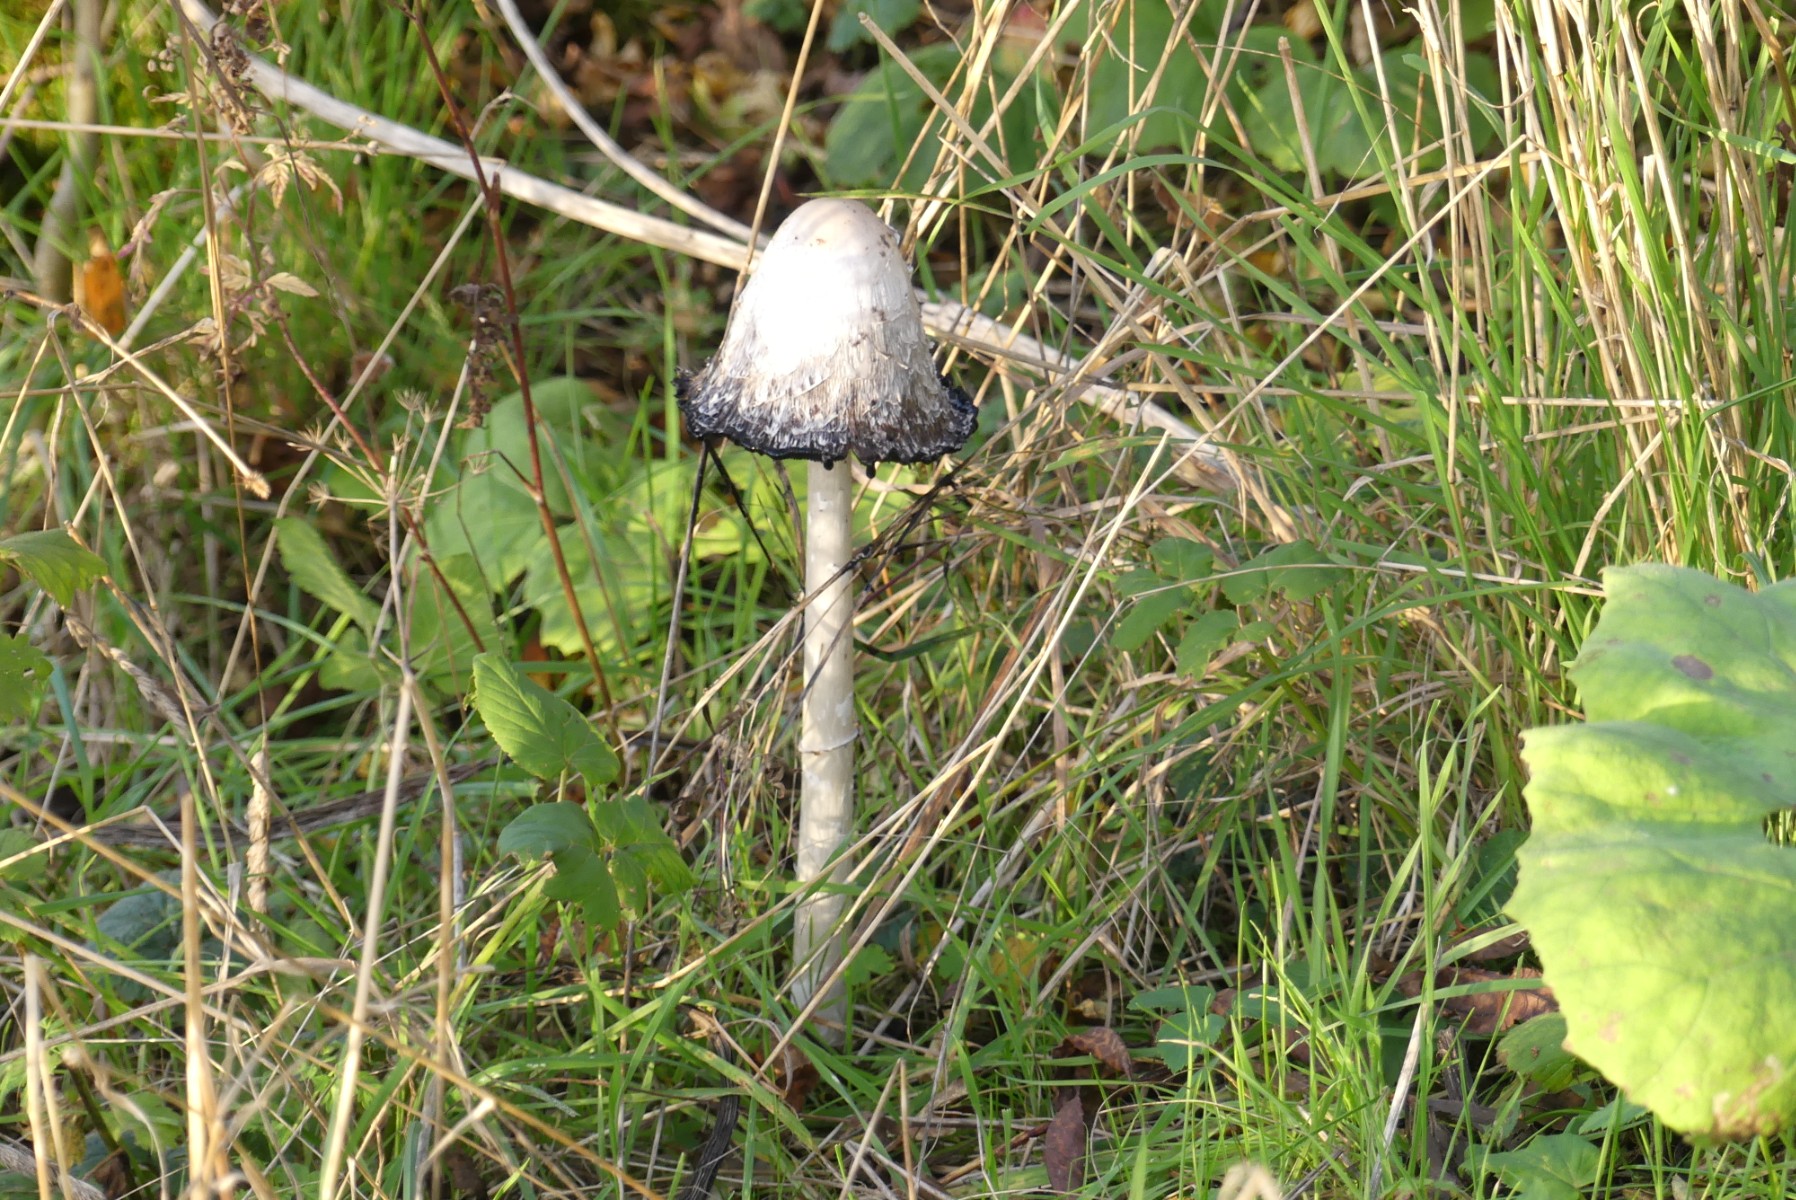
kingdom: Fungi
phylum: Basidiomycota
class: Agaricomycetes
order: Agaricales
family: Agaricaceae
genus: Coprinus
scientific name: Coprinus comatus
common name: stor parykhat
